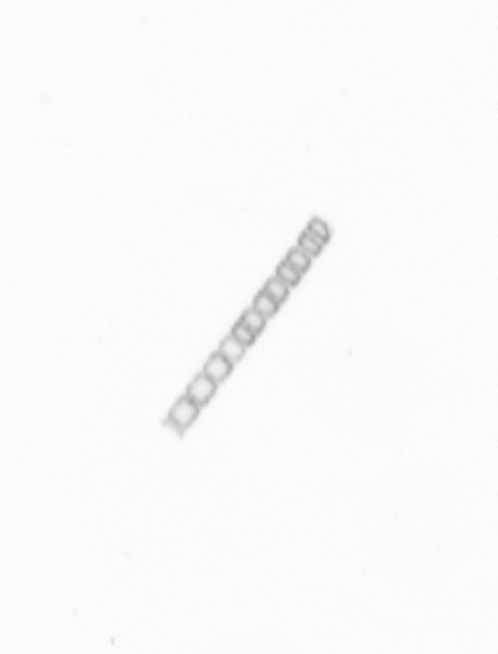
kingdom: Chromista
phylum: Ochrophyta
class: Bacillariophyceae
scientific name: Bacillariophyceae
